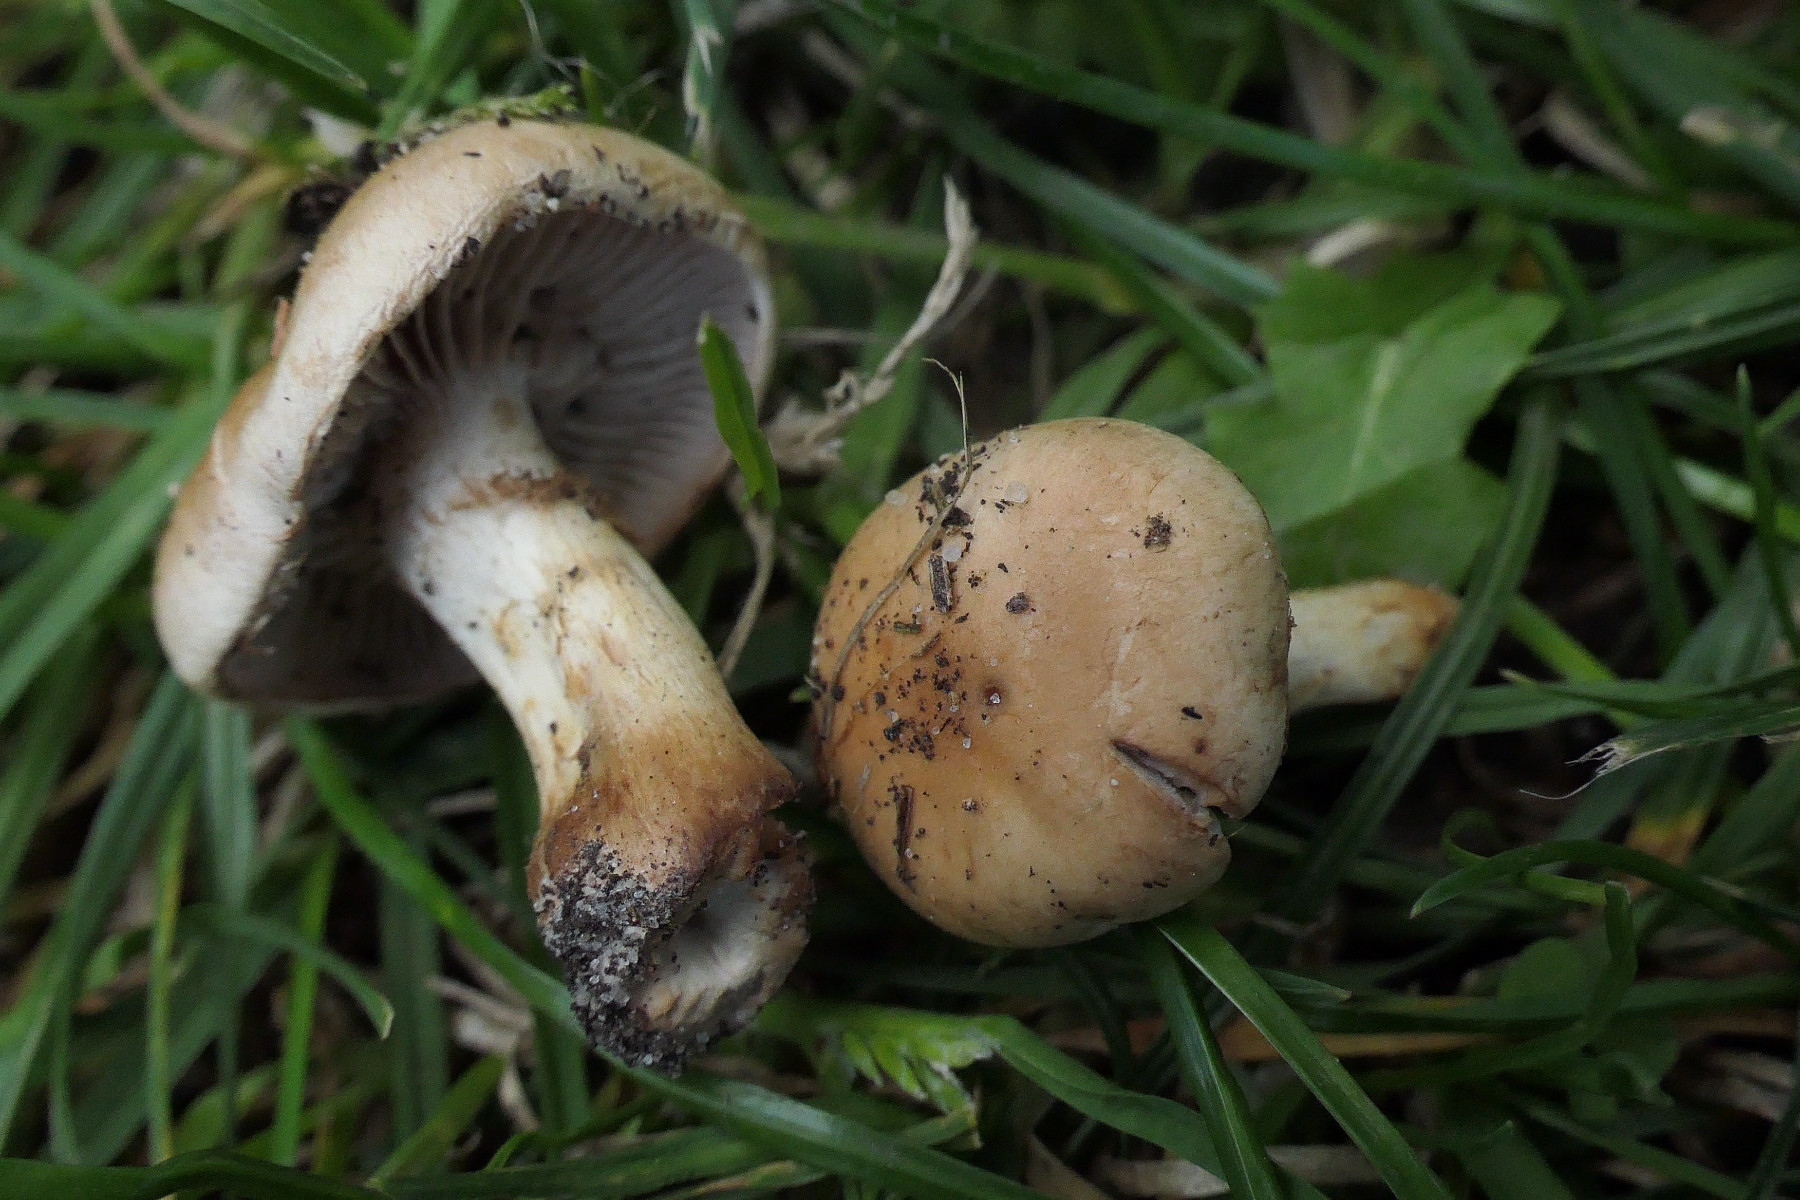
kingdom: Fungi
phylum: Basidiomycota
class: Agaricomycetes
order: Agaricales
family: Hymenogastraceae
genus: Hebeloma
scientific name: Hebeloma mesophaeum
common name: lerbrun tåreblad
